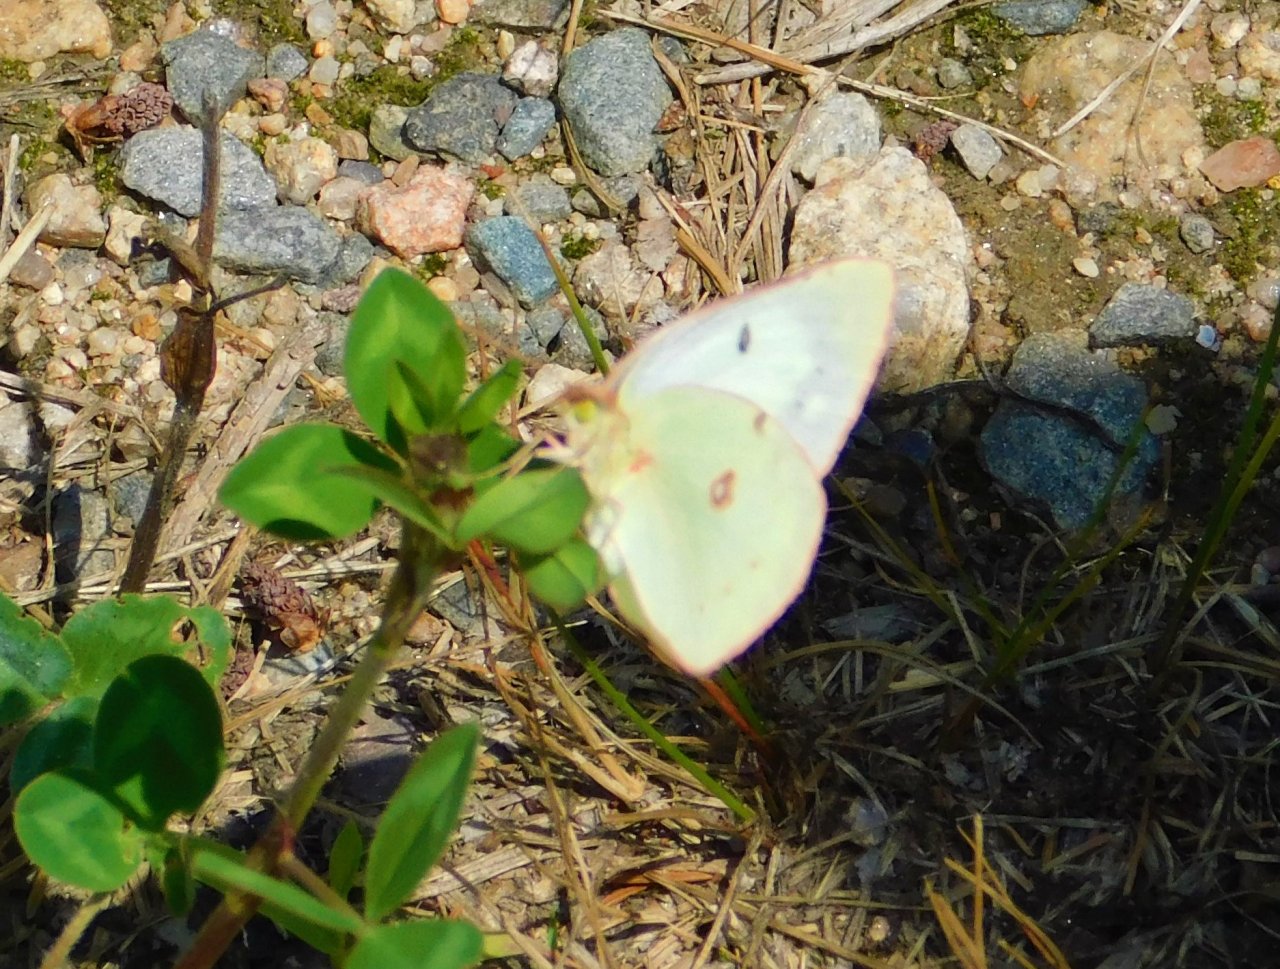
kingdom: Animalia
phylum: Arthropoda
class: Insecta
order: Lepidoptera
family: Pieridae
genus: Colias
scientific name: Colias philodice
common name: Clouded Sulphur
